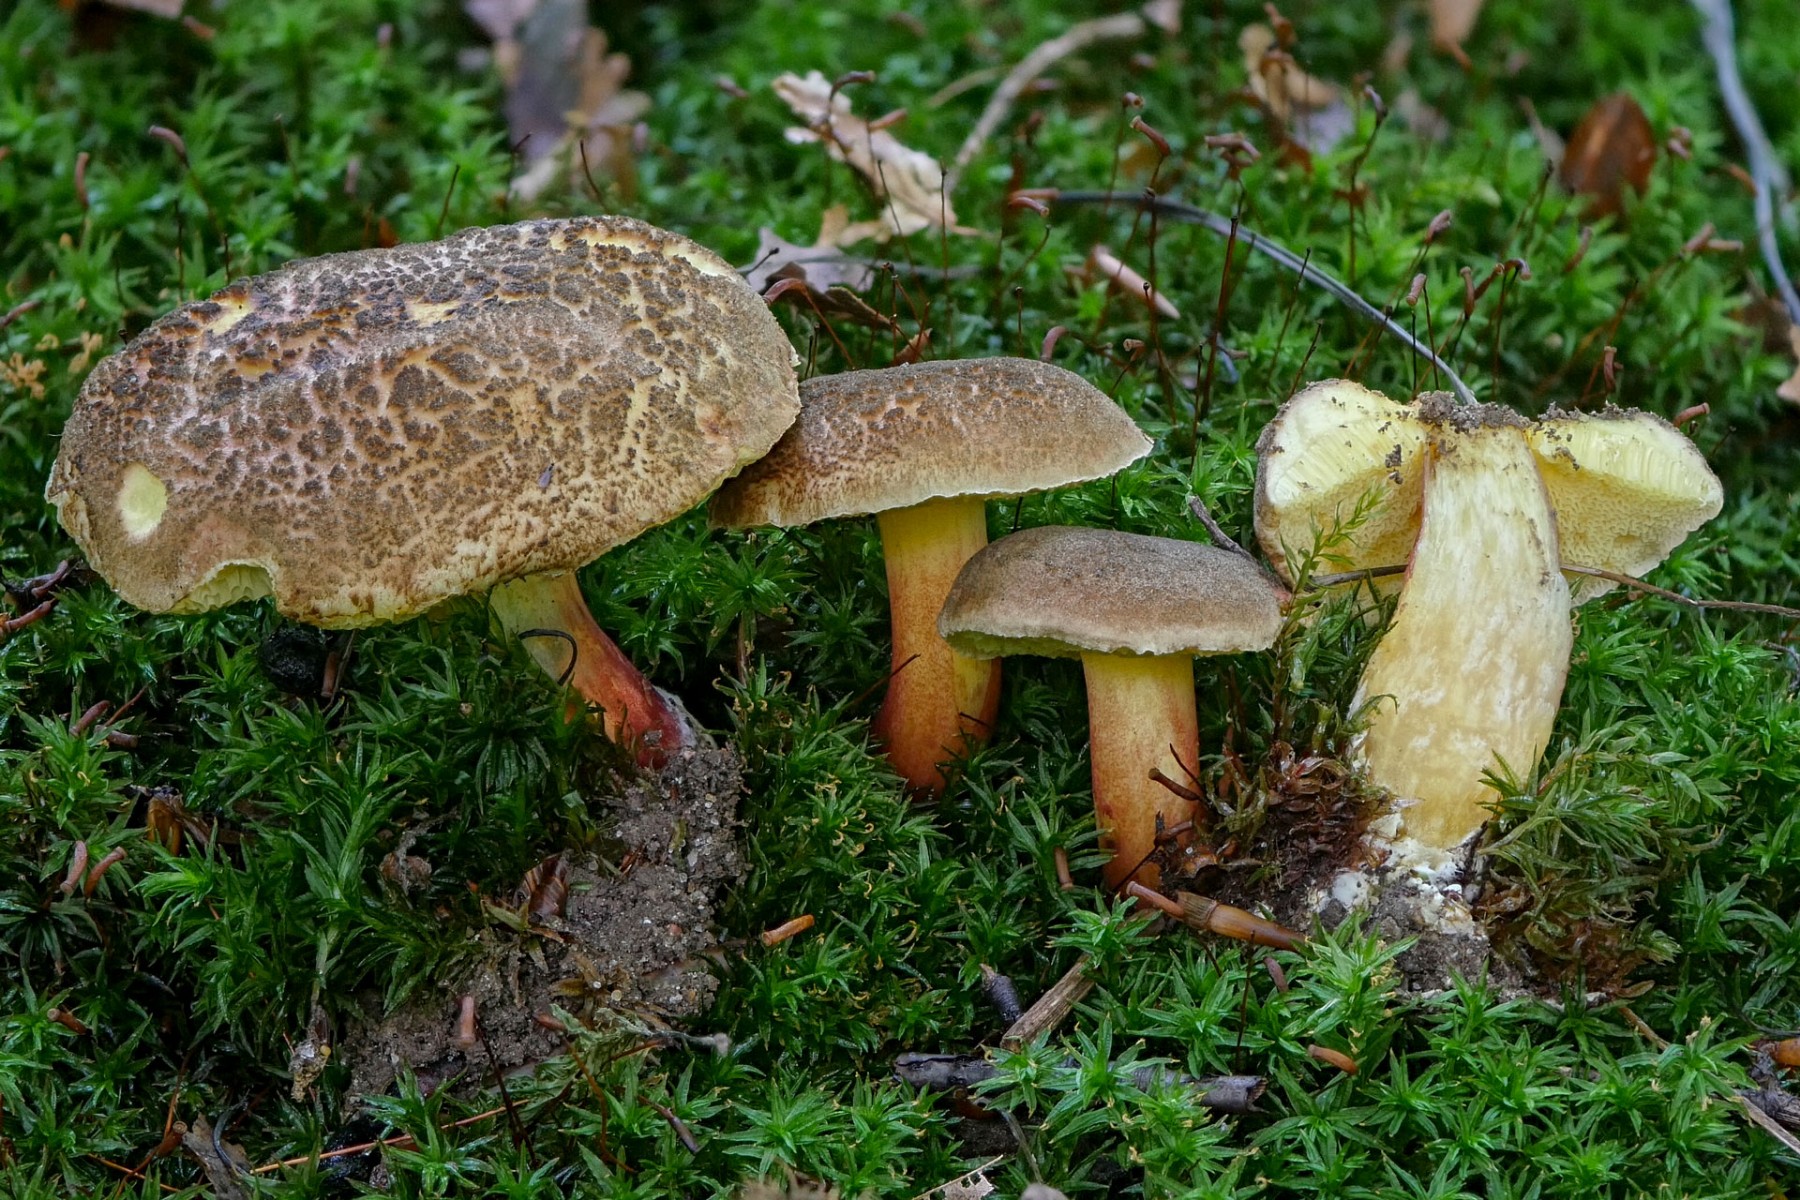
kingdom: Fungi
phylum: Basidiomycota
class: Agaricomycetes
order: Boletales
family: Boletaceae
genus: Xerocomellus
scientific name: Xerocomellus
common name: dværgrørhat
